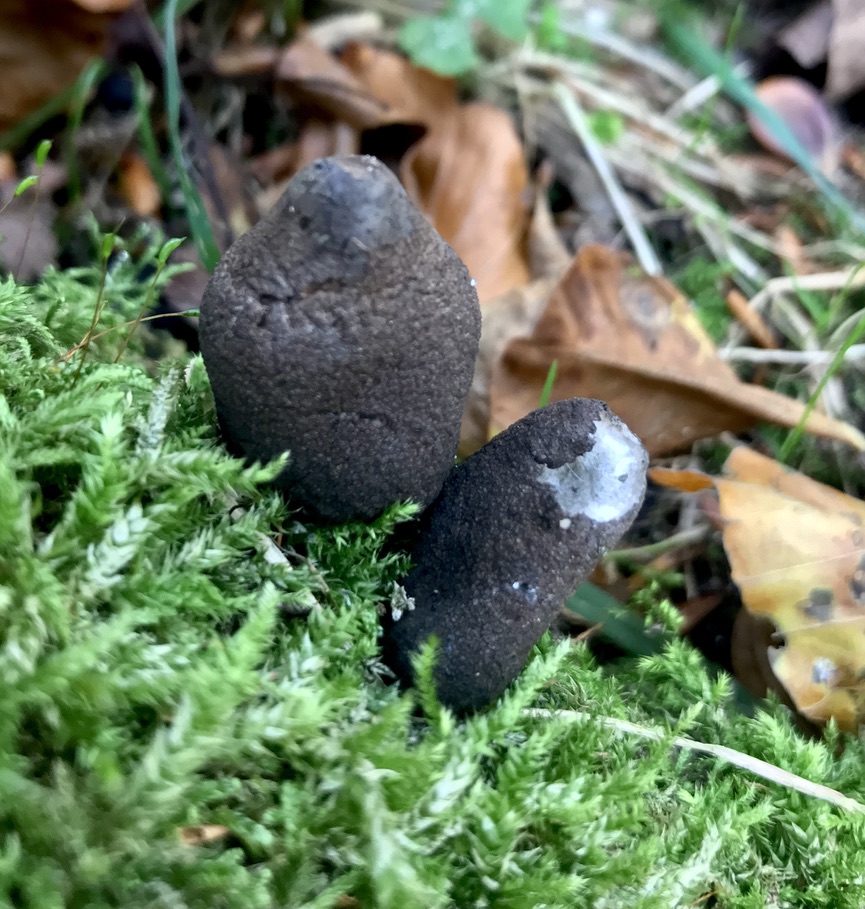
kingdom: Fungi
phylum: Ascomycota
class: Sordariomycetes
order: Xylariales
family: Xylariaceae
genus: Xylaria
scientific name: Xylaria polymorpha
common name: kølle-stødsvamp
